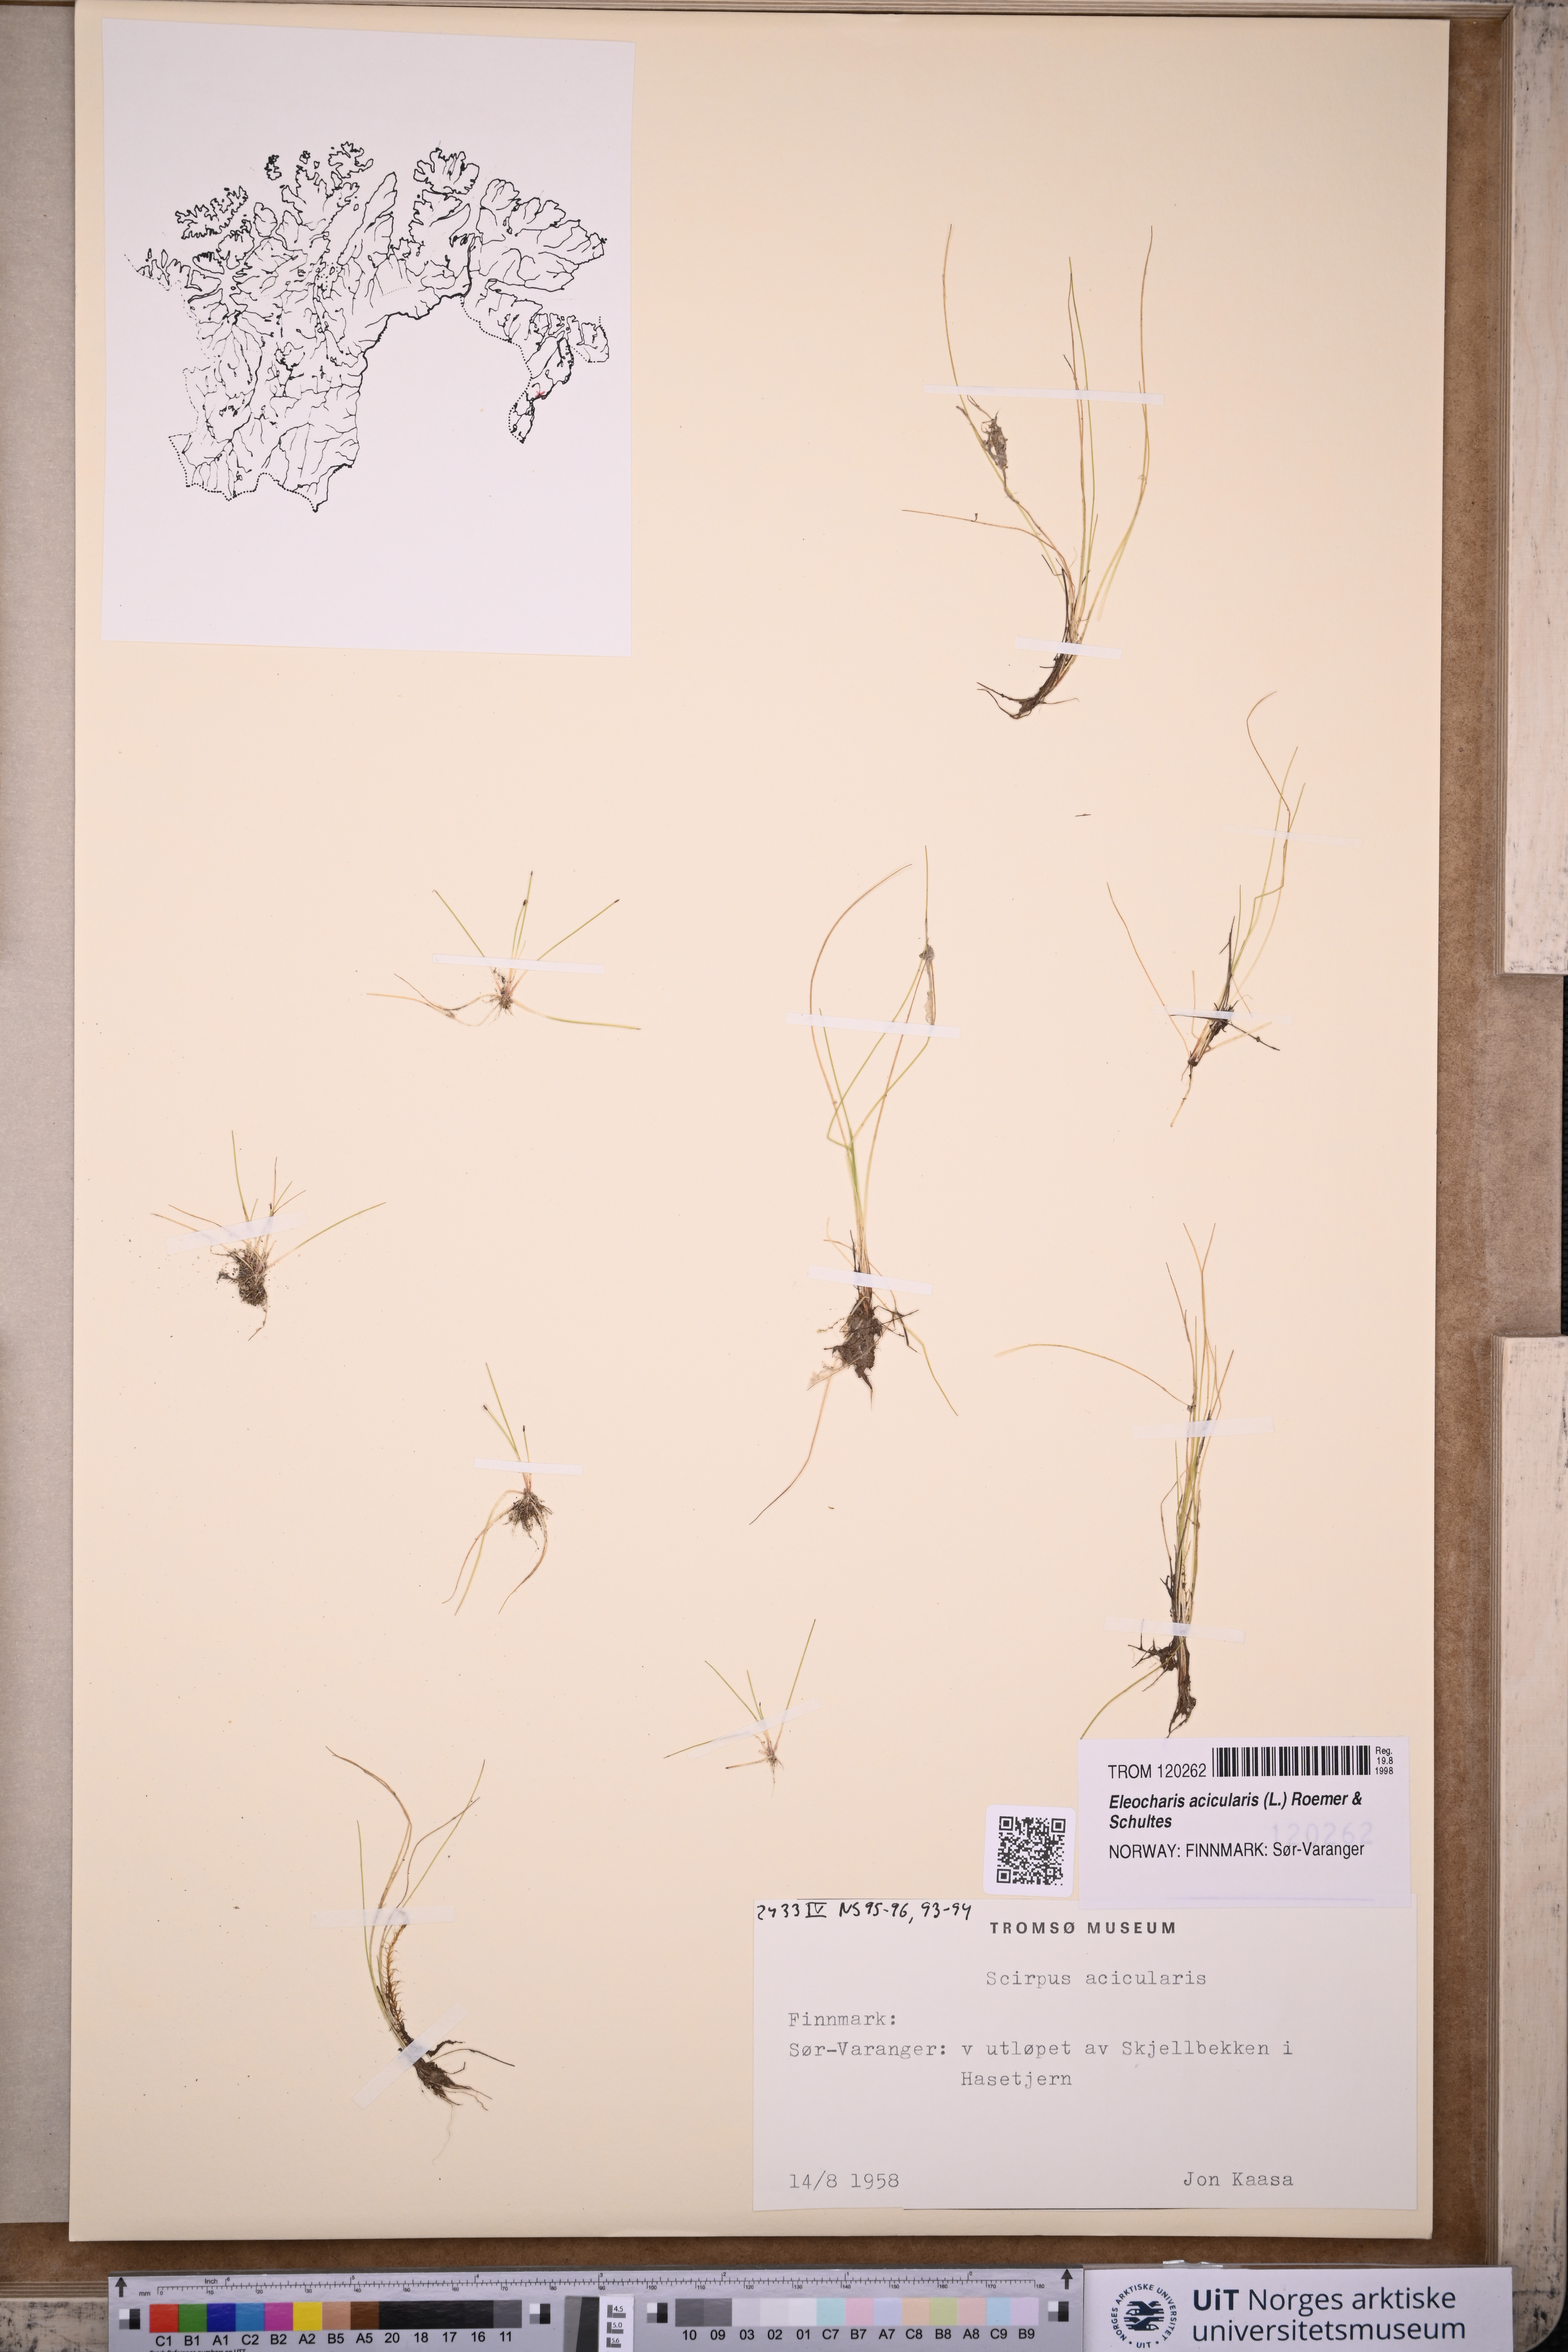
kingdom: Plantae
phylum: Tracheophyta
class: Liliopsida
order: Poales
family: Cyperaceae
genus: Eleocharis
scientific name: Eleocharis acicularis
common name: Needle spike-rush
